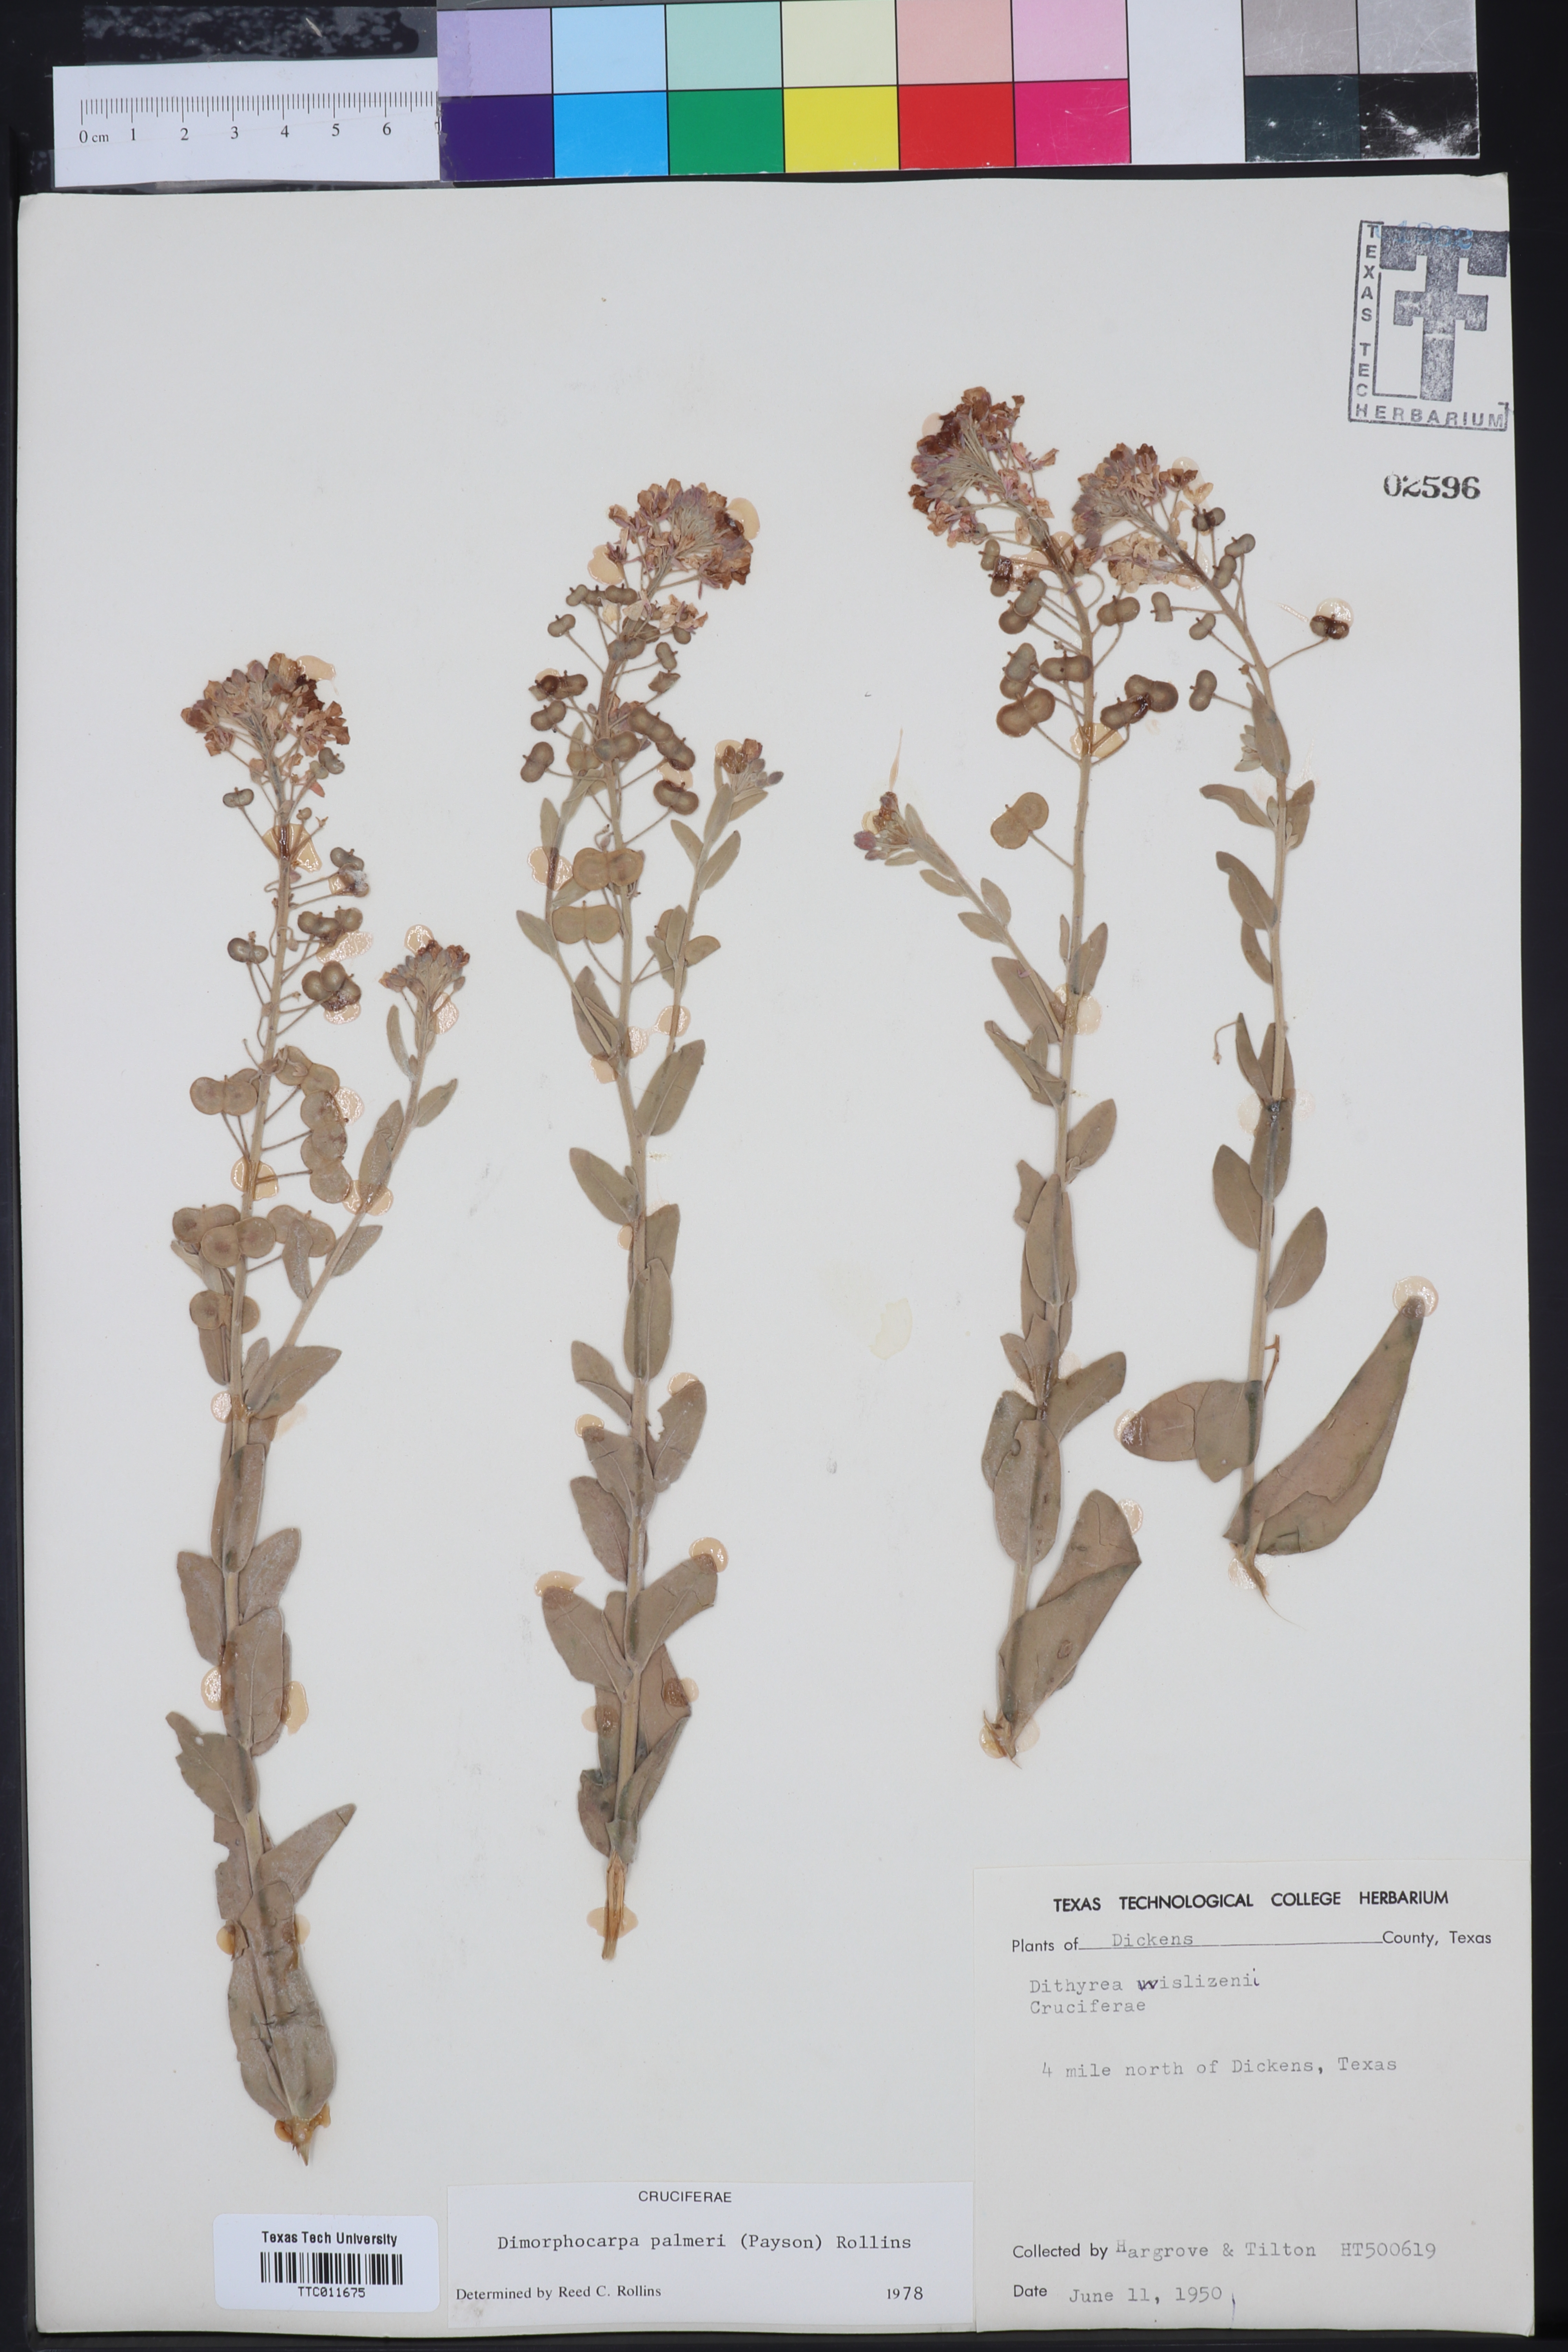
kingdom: Plantae
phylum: Tracheophyta
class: Magnoliopsida
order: Brassicales
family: Brassicaceae
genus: Dimorphocarpa
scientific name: Dimorphocarpa candicans
